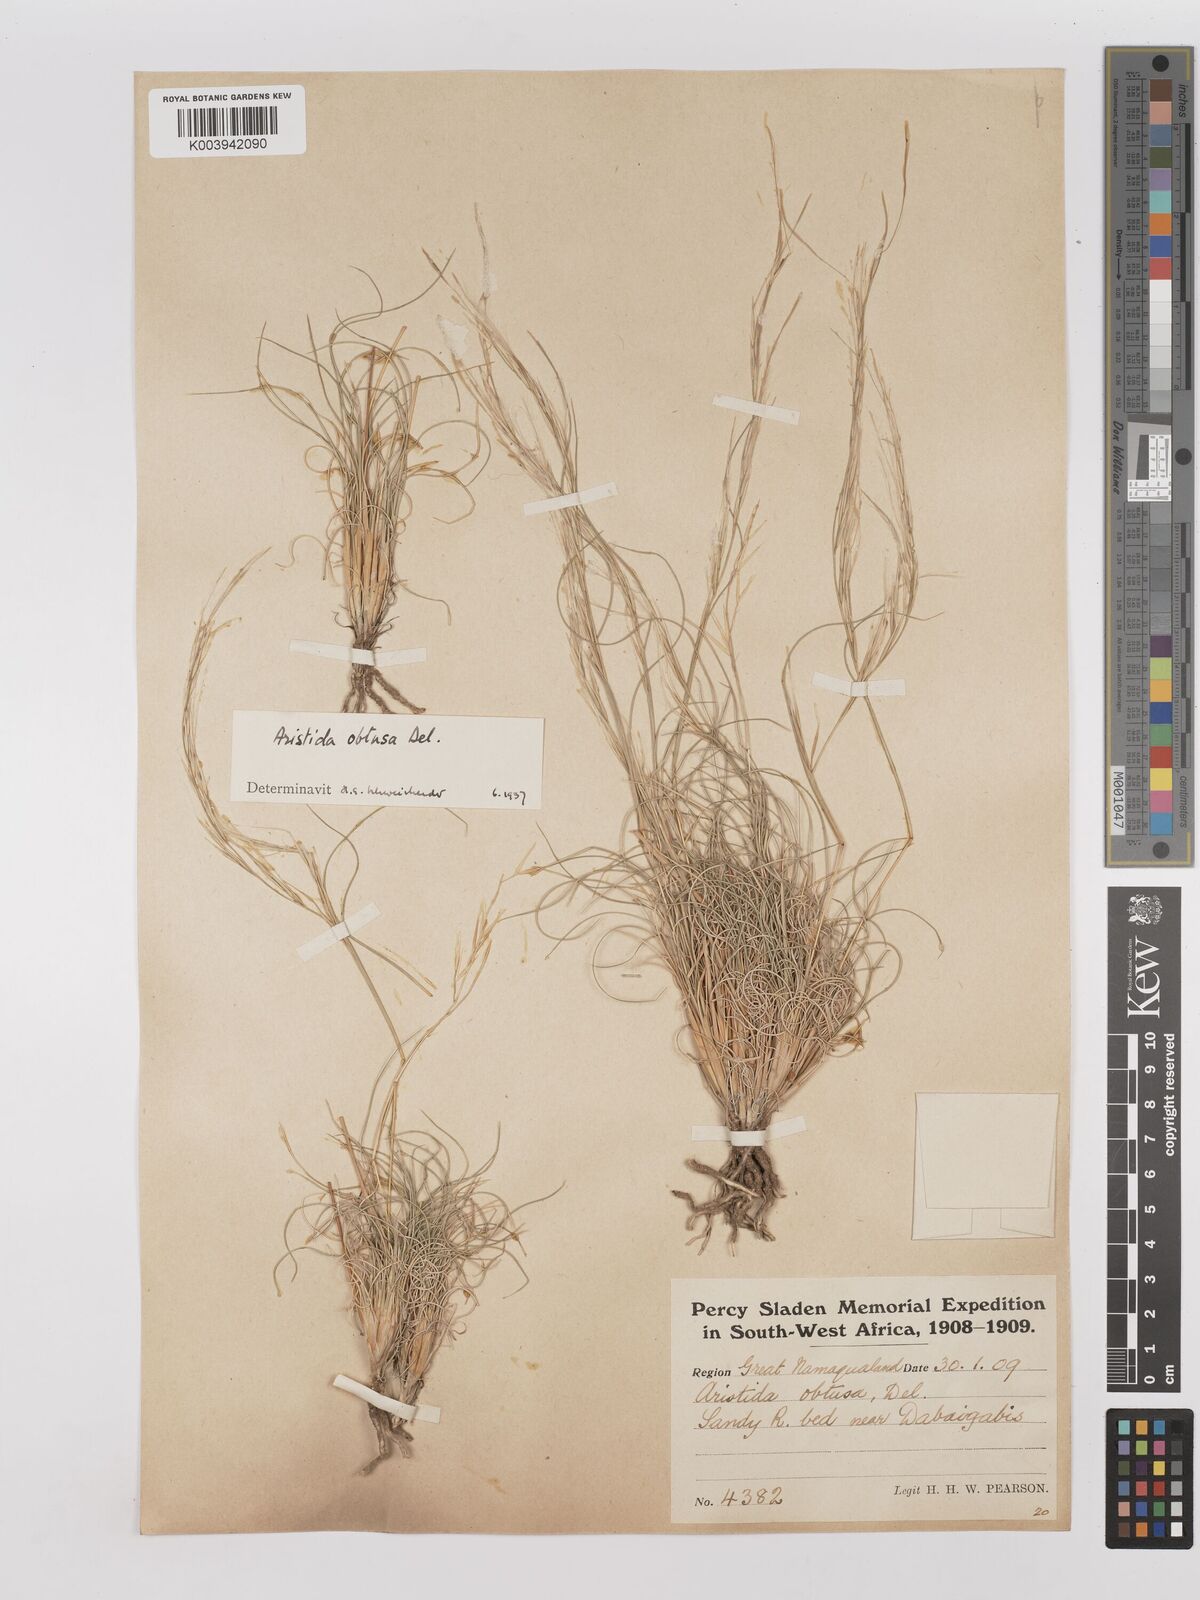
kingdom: Plantae
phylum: Tracheophyta
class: Liliopsida
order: Poales
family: Poaceae
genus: Stipagrostis
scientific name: Stipagrostis obtusa
